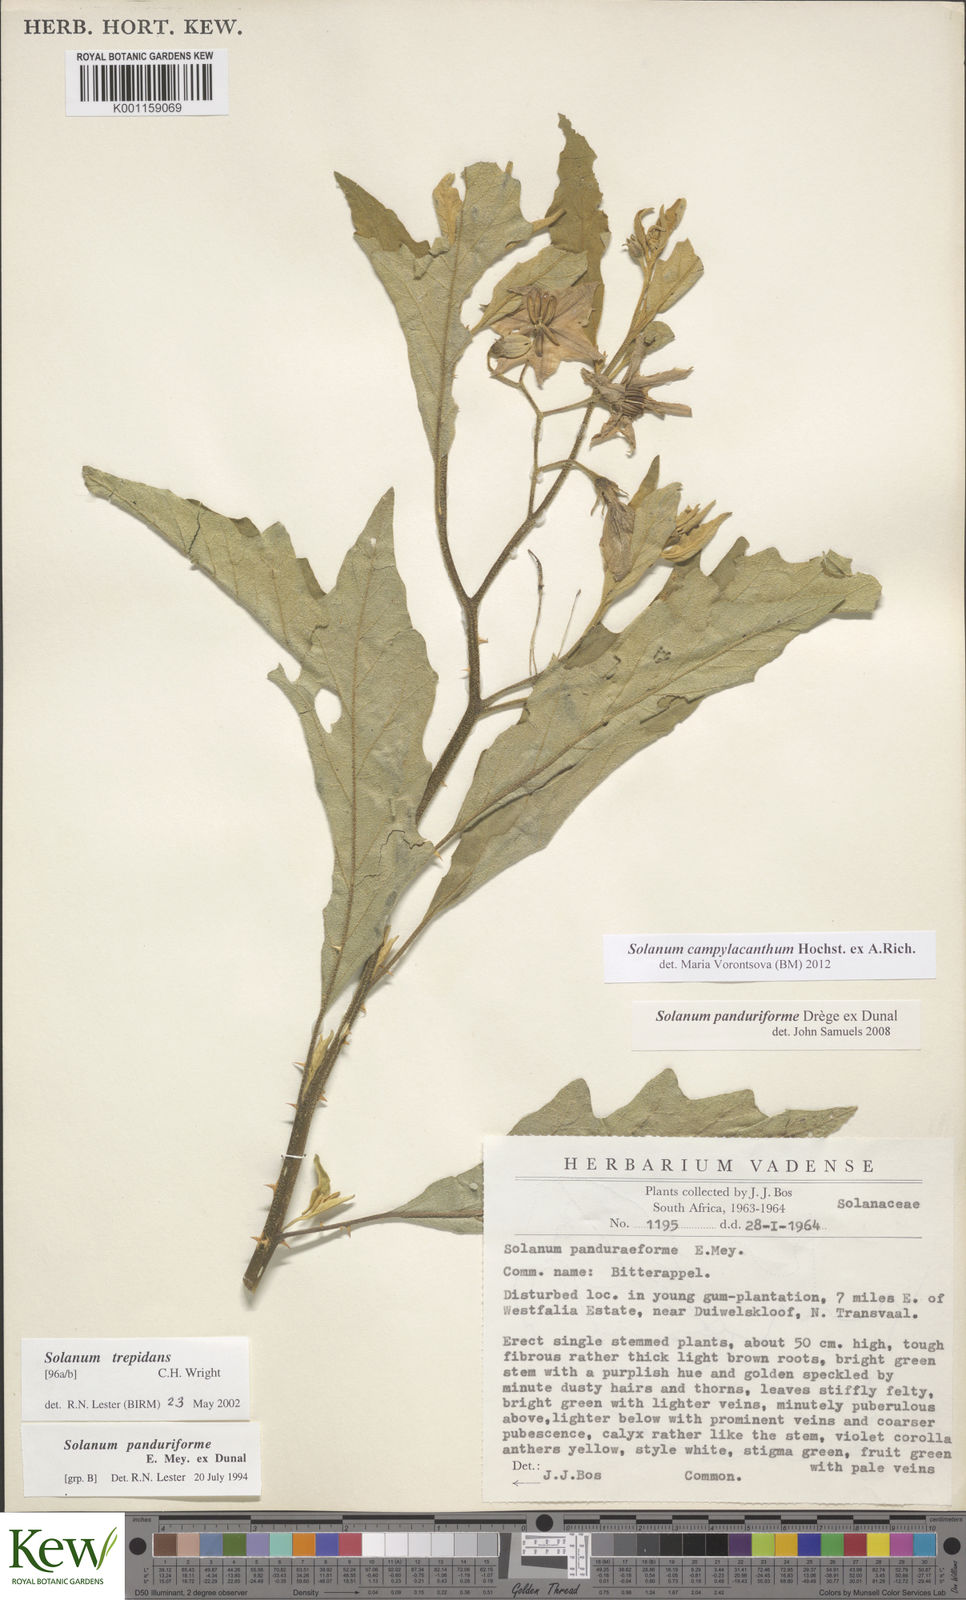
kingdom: Plantae
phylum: Tracheophyta
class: Magnoliopsida
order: Solanales
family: Solanaceae
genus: Solanum
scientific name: Solanum campylacanthum
